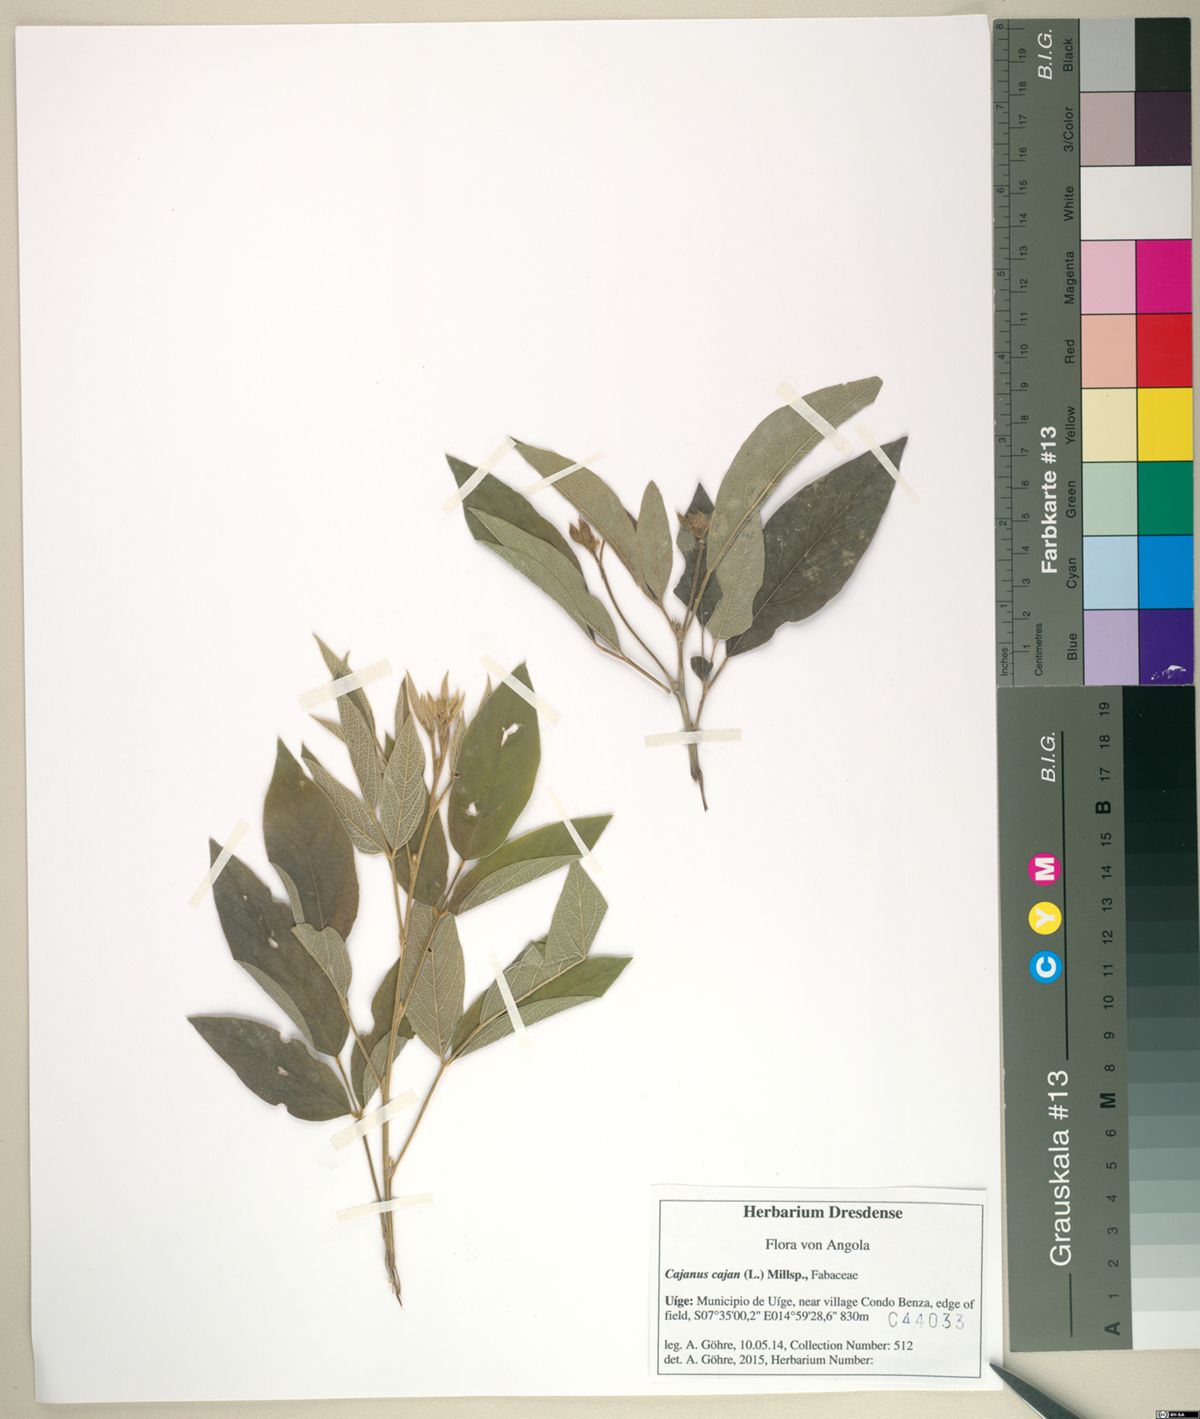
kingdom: Plantae
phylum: Tracheophyta
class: Magnoliopsida
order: Fabales
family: Fabaceae
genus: Cajanus
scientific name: Cajanus cajan
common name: Pigeonpea
